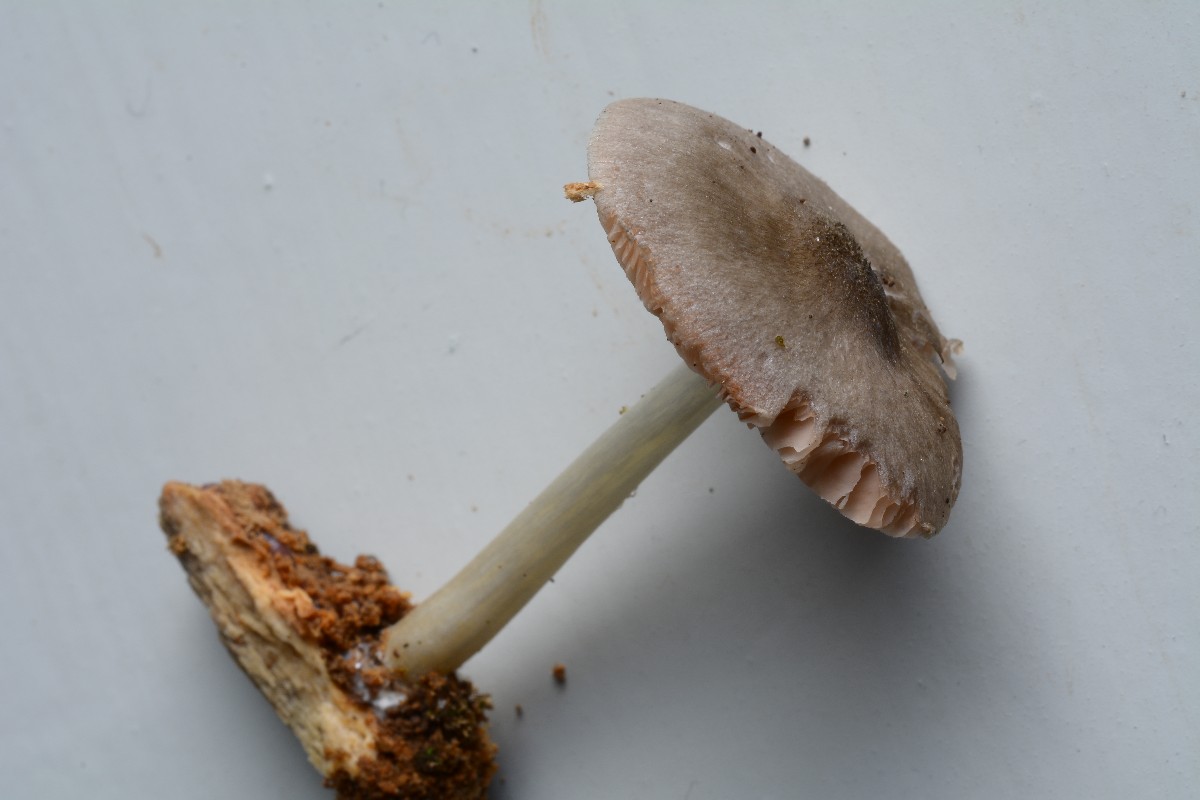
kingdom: Fungi
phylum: Basidiomycota
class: Agaricomycetes
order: Agaricales
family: Pluteaceae
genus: Pluteus
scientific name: Pluteus pouzarianus
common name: plantage-skærmhat
